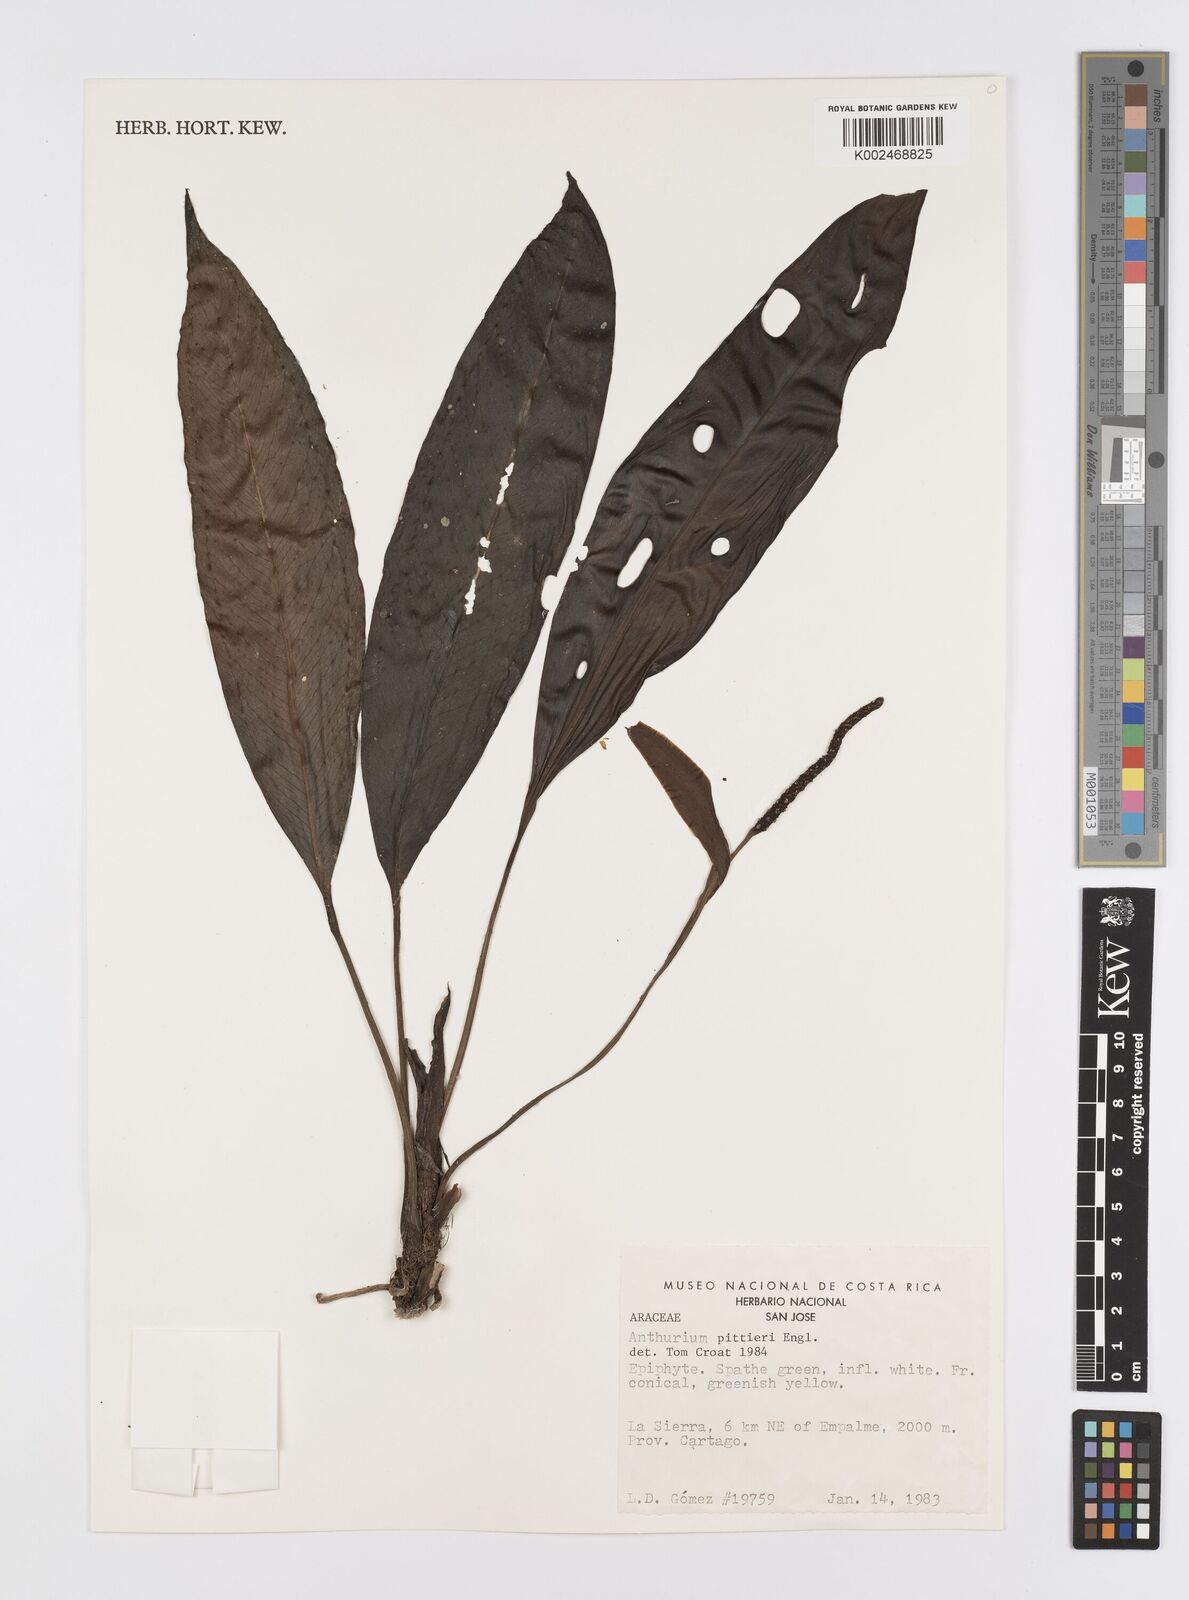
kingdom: Plantae
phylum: Tracheophyta
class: Liliopsida
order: Alismatales
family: Araceae
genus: Anthurium
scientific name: Anthurium pittieri
